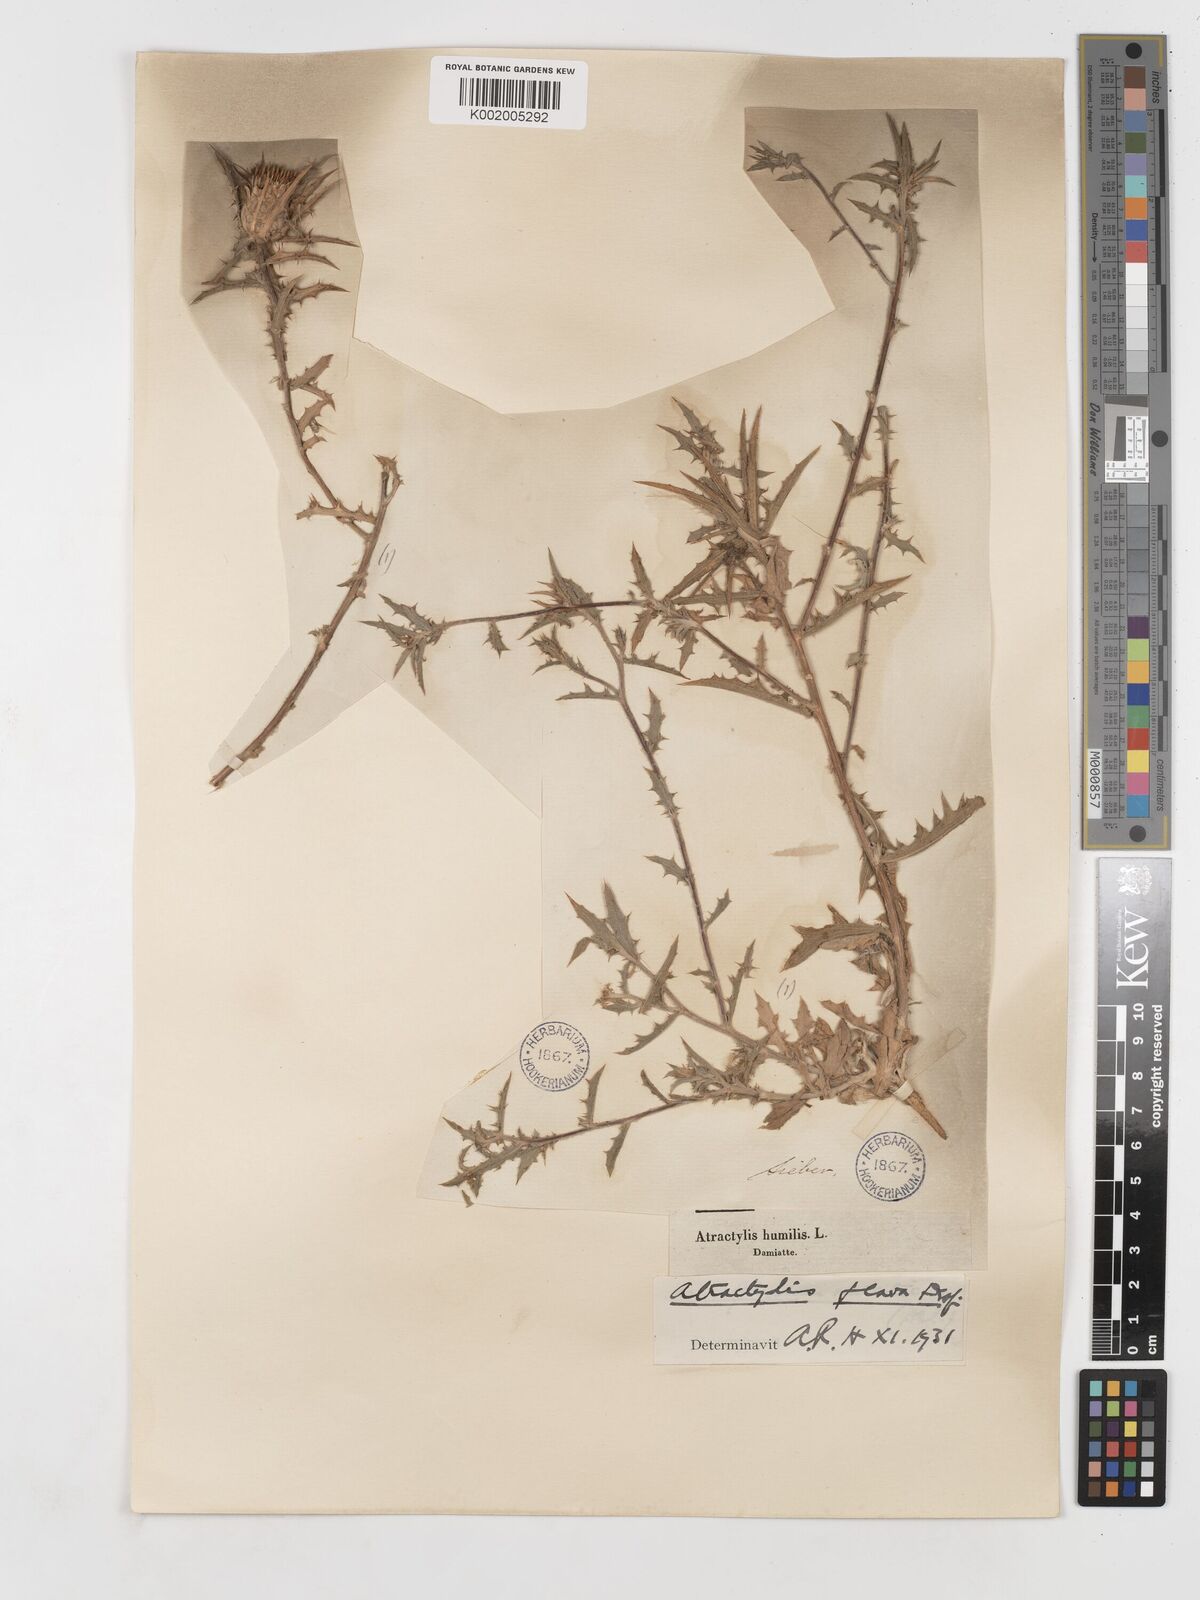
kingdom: Plantae
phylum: Tracheophyta
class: Magnoliopsida
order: Asterales
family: Asteraceae
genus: Atractylis
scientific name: Atractylis carduus
